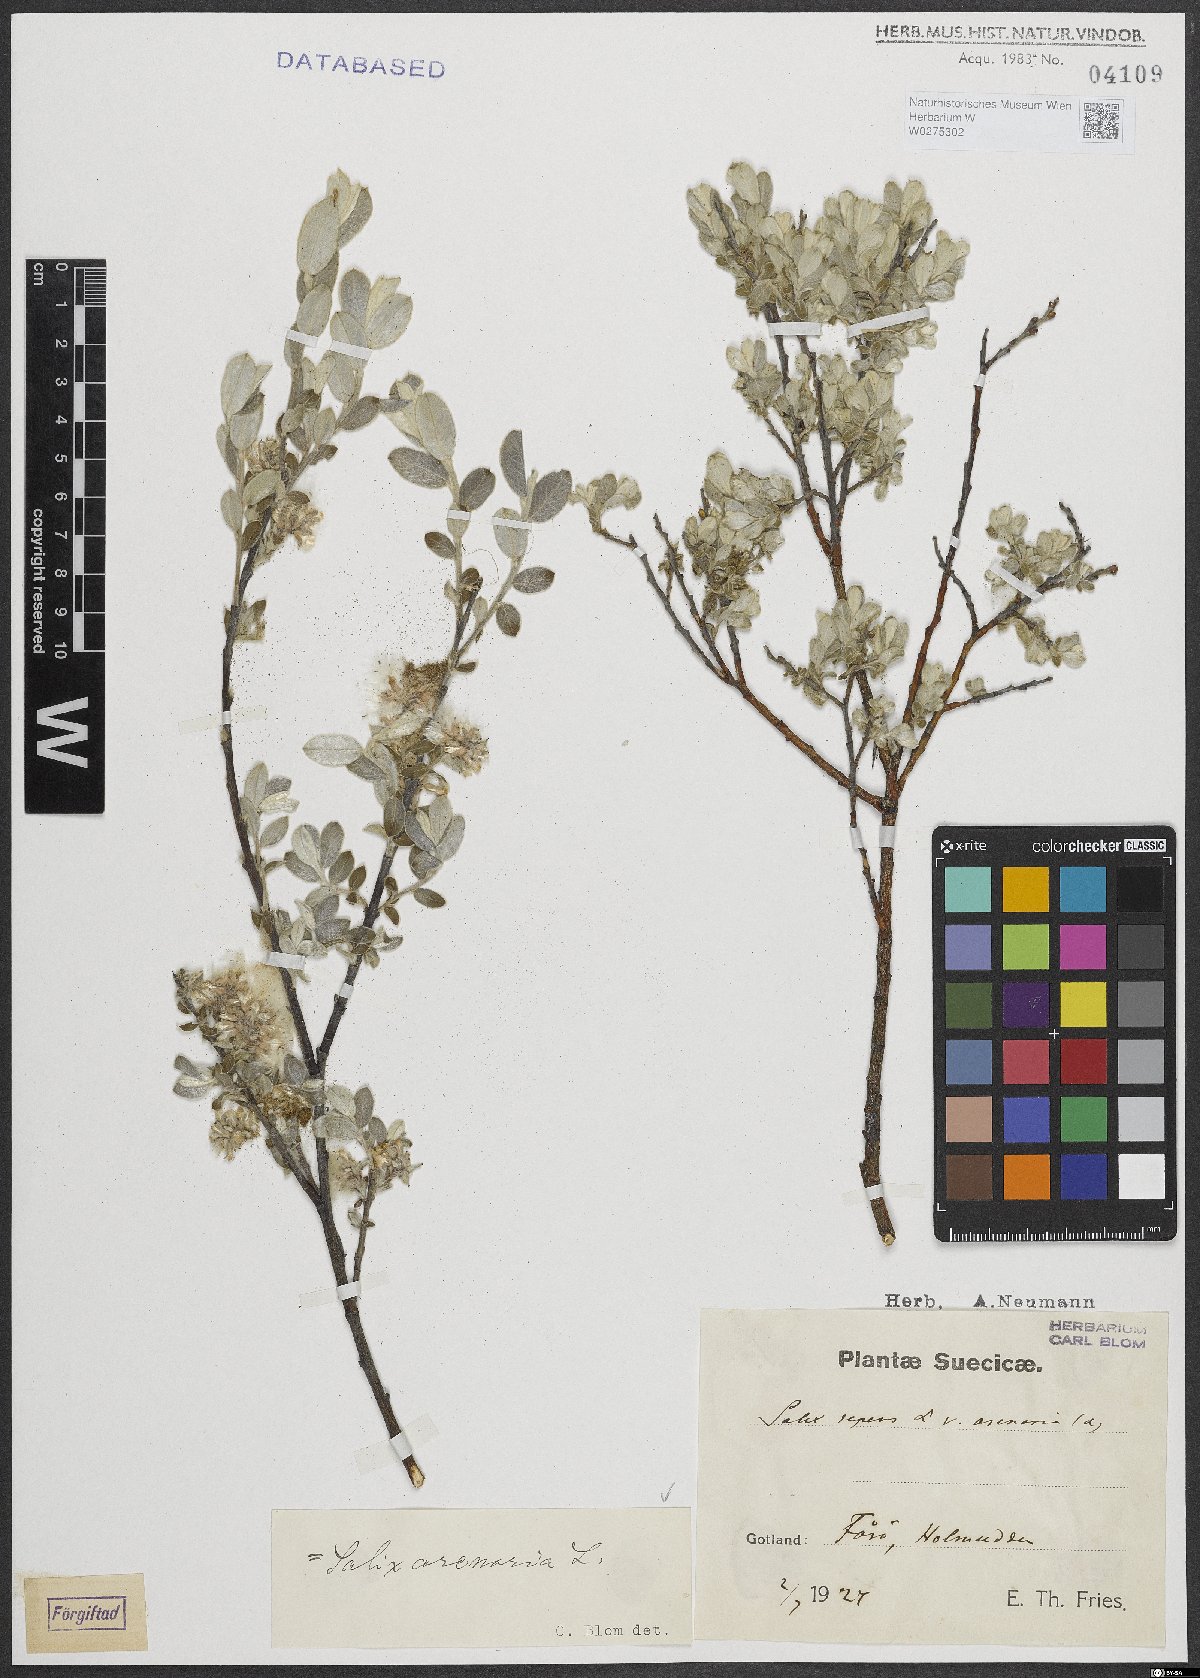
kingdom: Plantae
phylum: Tracheophyta
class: Magnoliopsida
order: Malpighiales
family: Salicaceae
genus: Salix
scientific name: Salix repens
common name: Creeping willow
